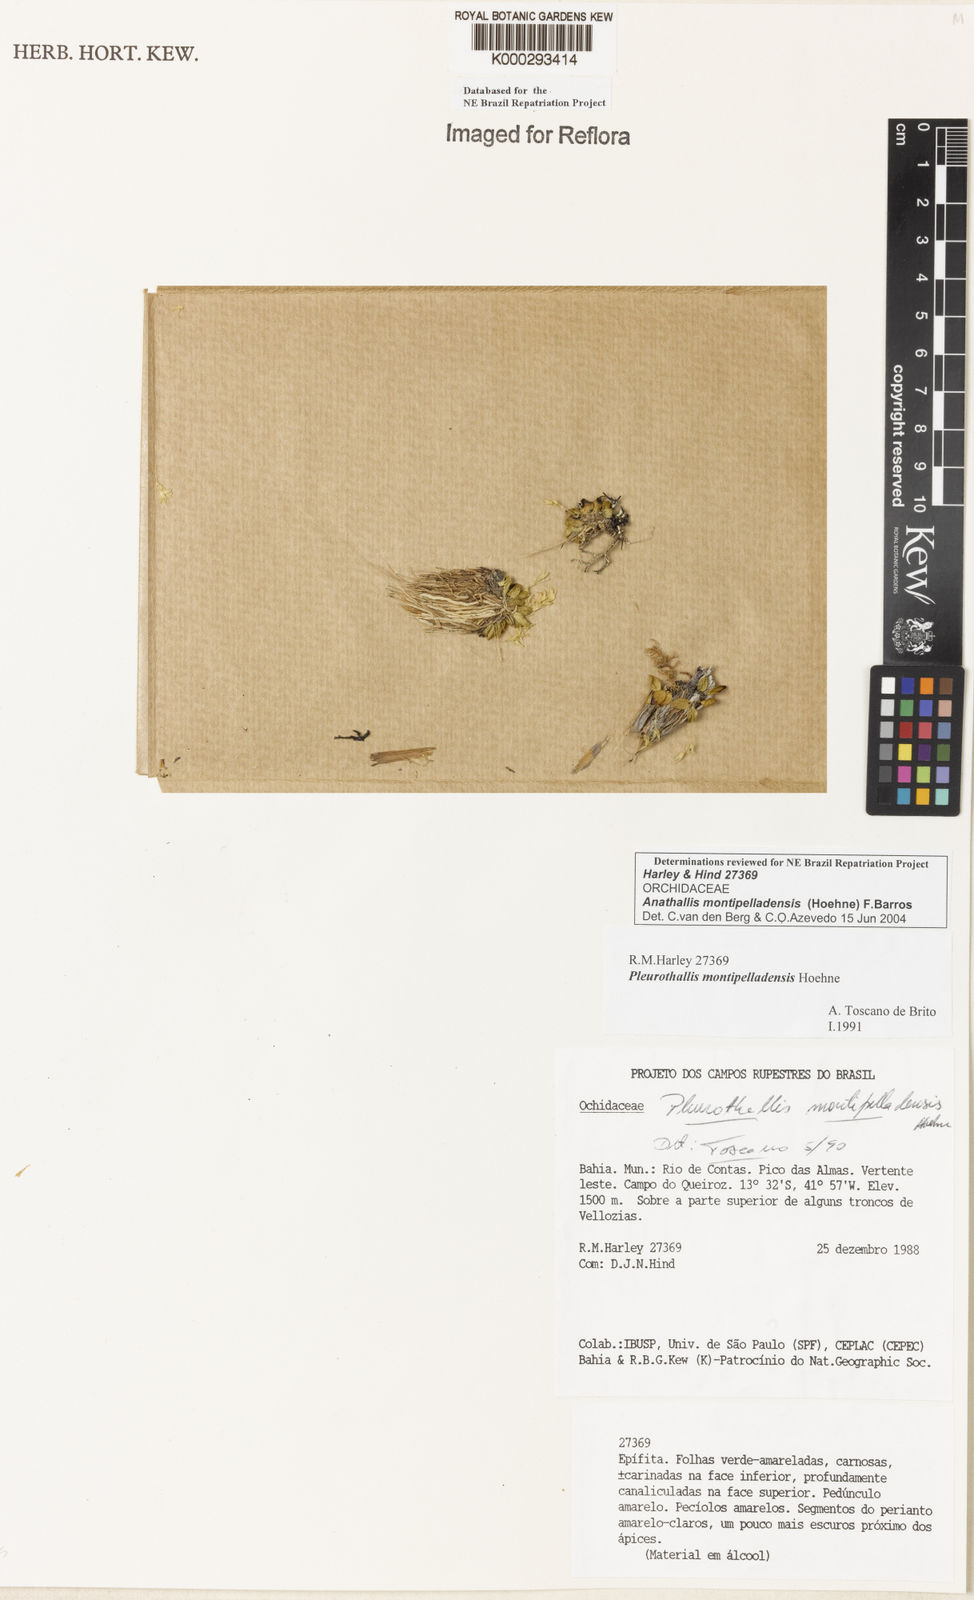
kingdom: Plantae
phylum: Tracheophyta
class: Liliopsida
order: Asparagales
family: Orchidaceae
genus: Anathallis
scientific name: Anathallis montipelladensis
